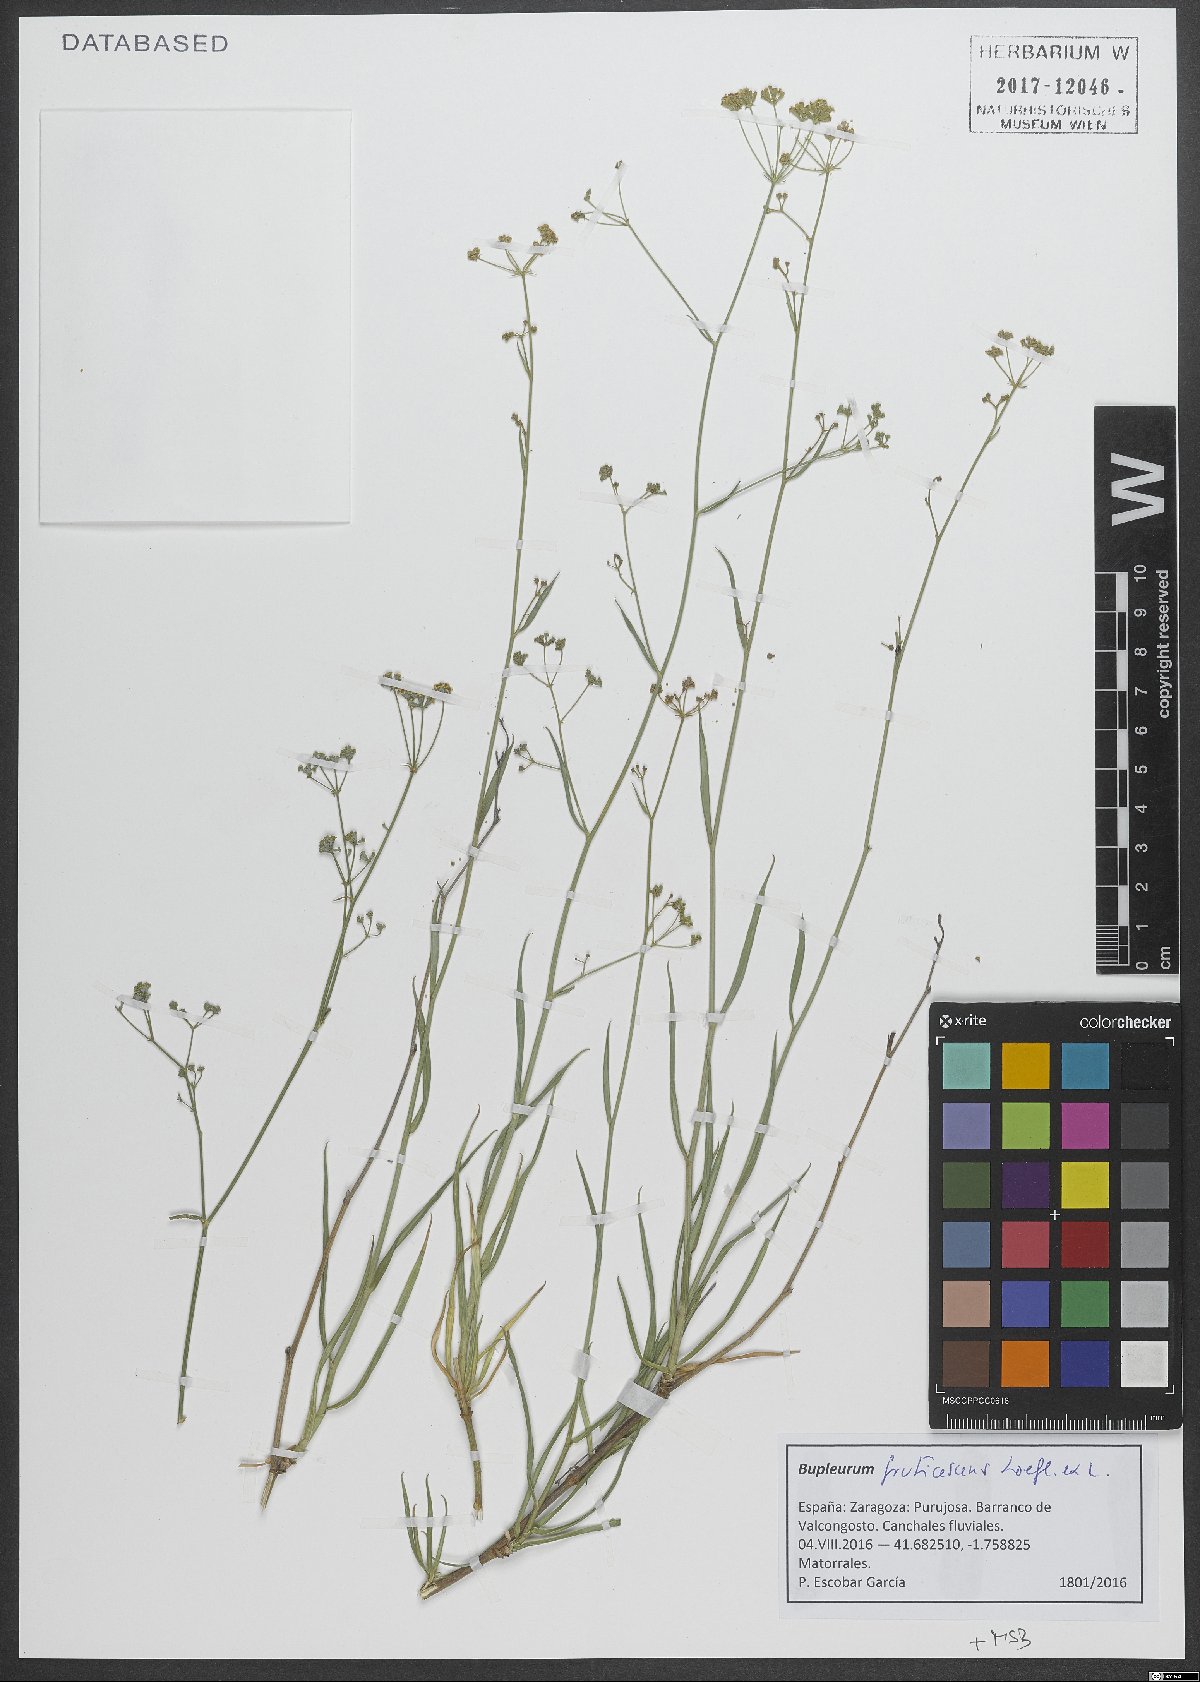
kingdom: Plantae
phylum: Tracheophyta
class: Magnoliopsida
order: Apiales
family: Apiaceae
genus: Bupleurum
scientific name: Bupleurum fruticescens
